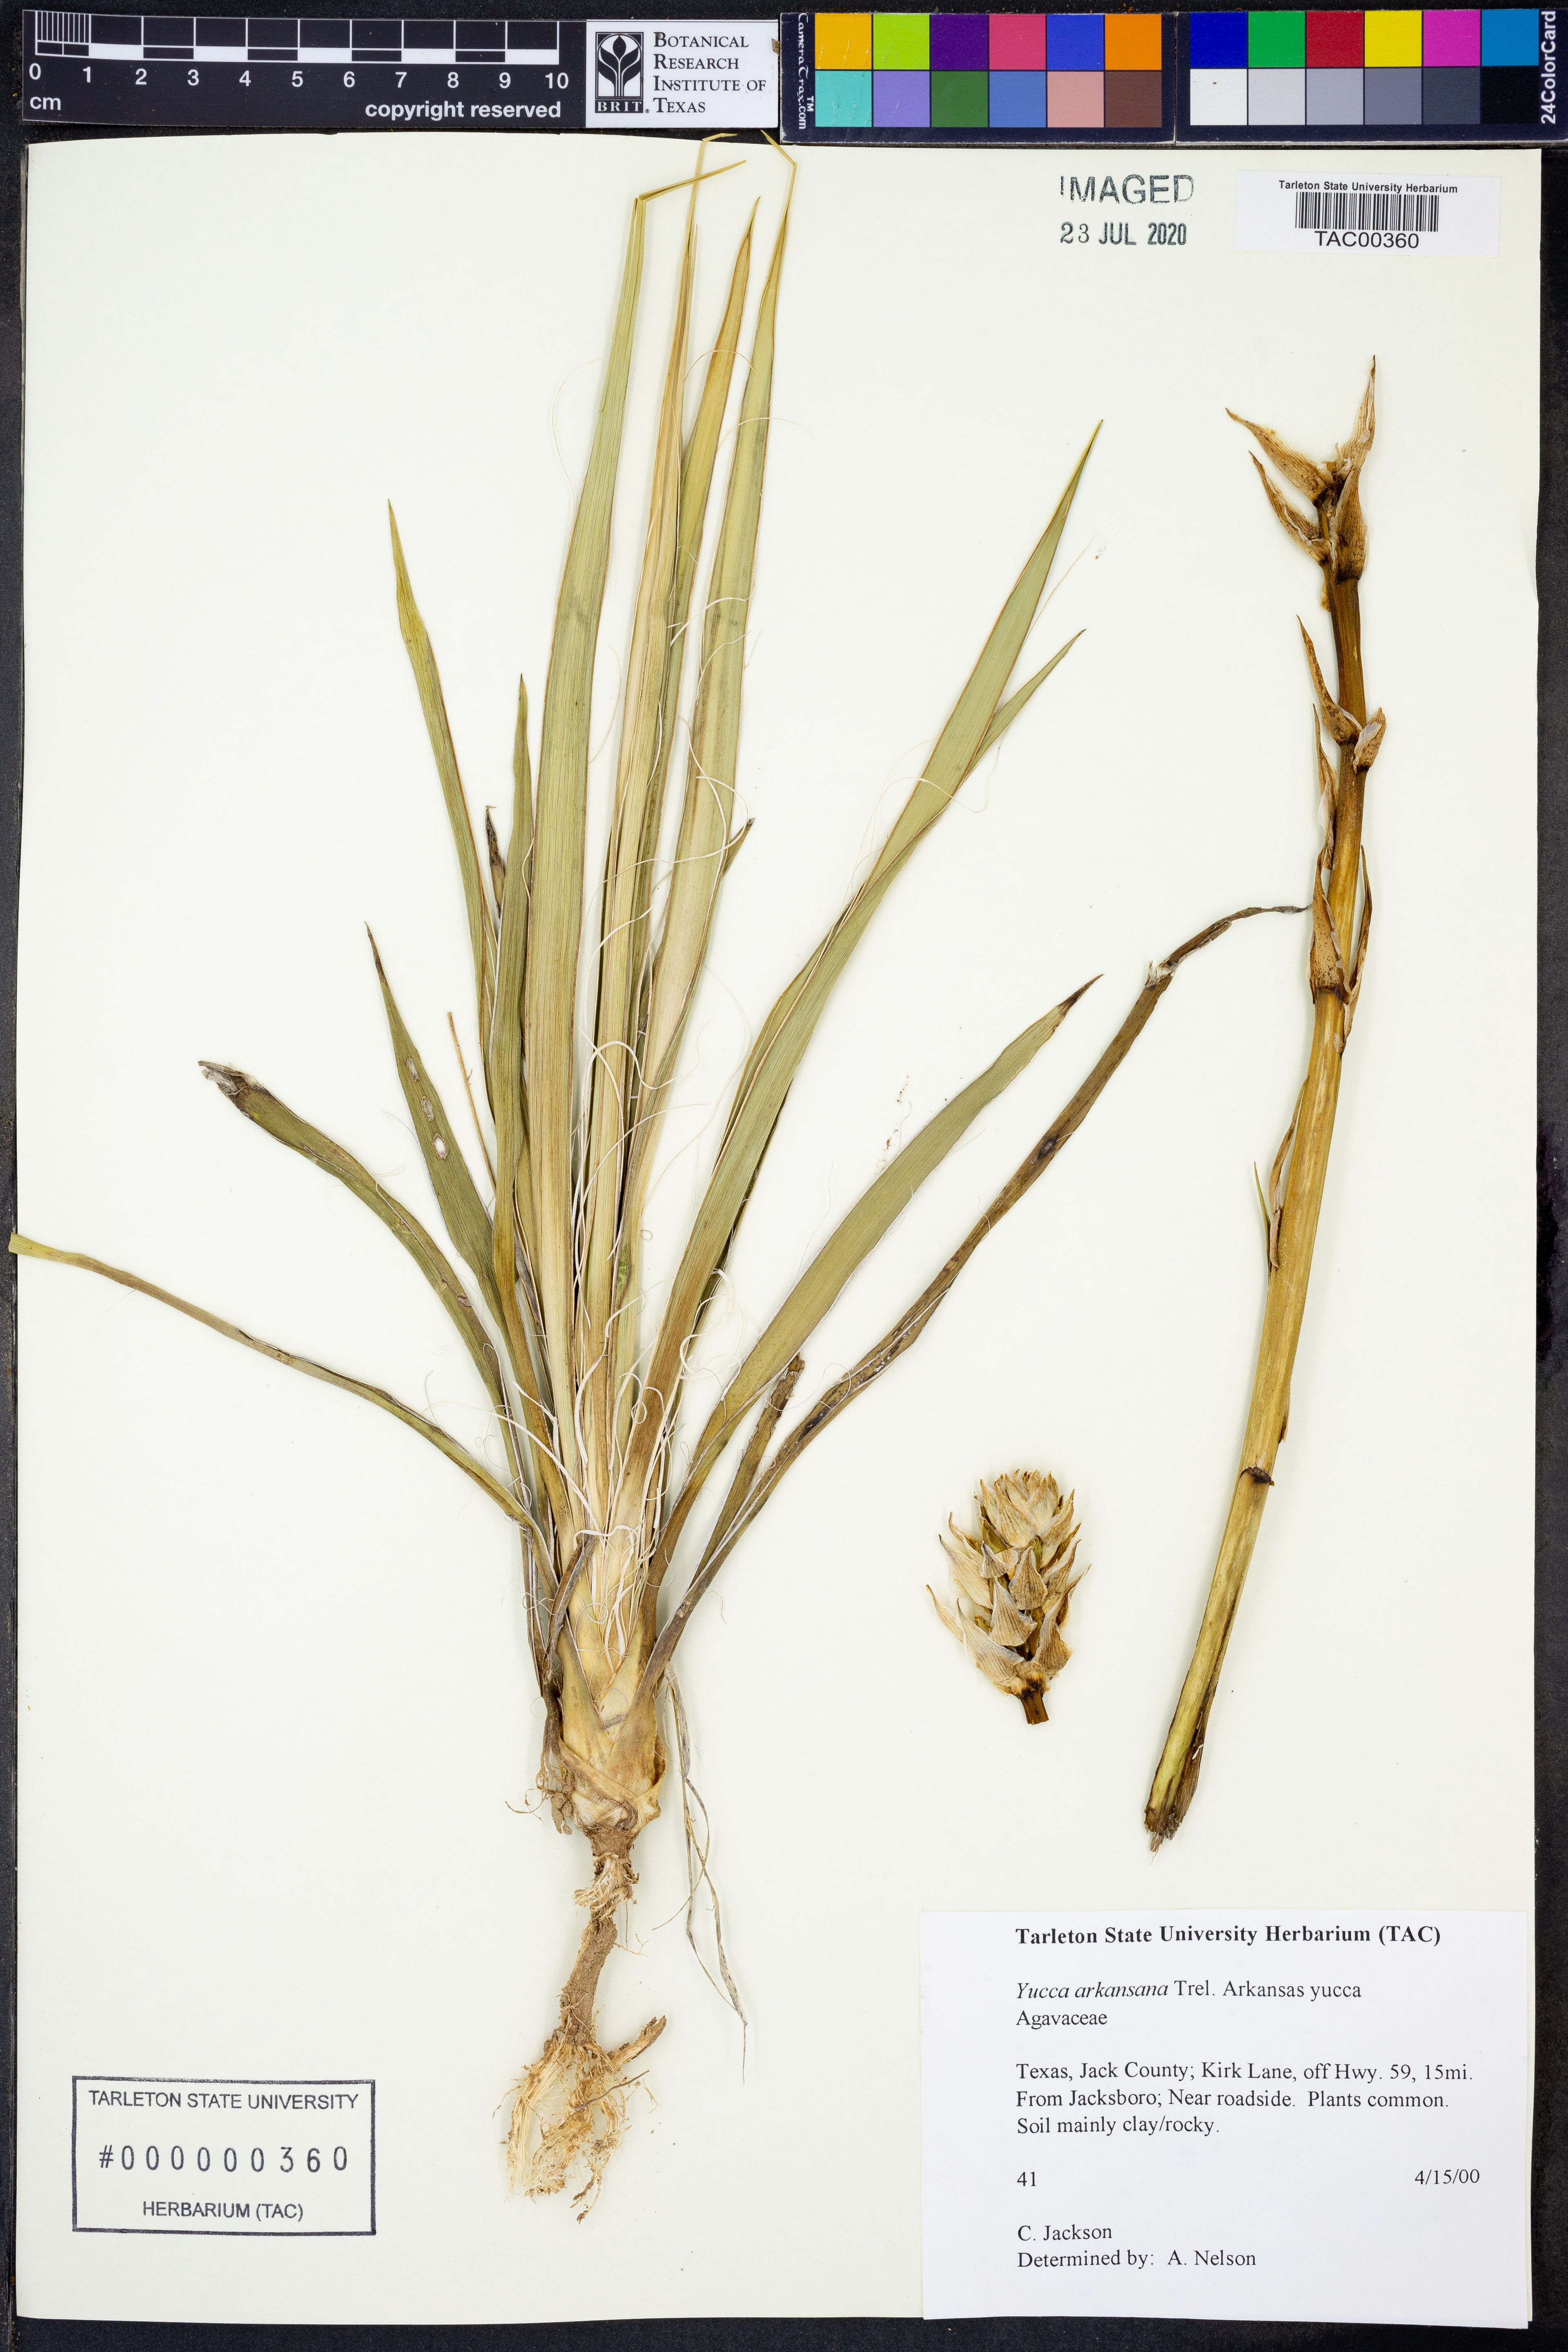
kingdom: Plantae
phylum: Tracheophyta
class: Liliopsida
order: Asparagales
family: Asparagaceae
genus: Yucca
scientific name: Yucca arkansana
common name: Arkansas yucca
